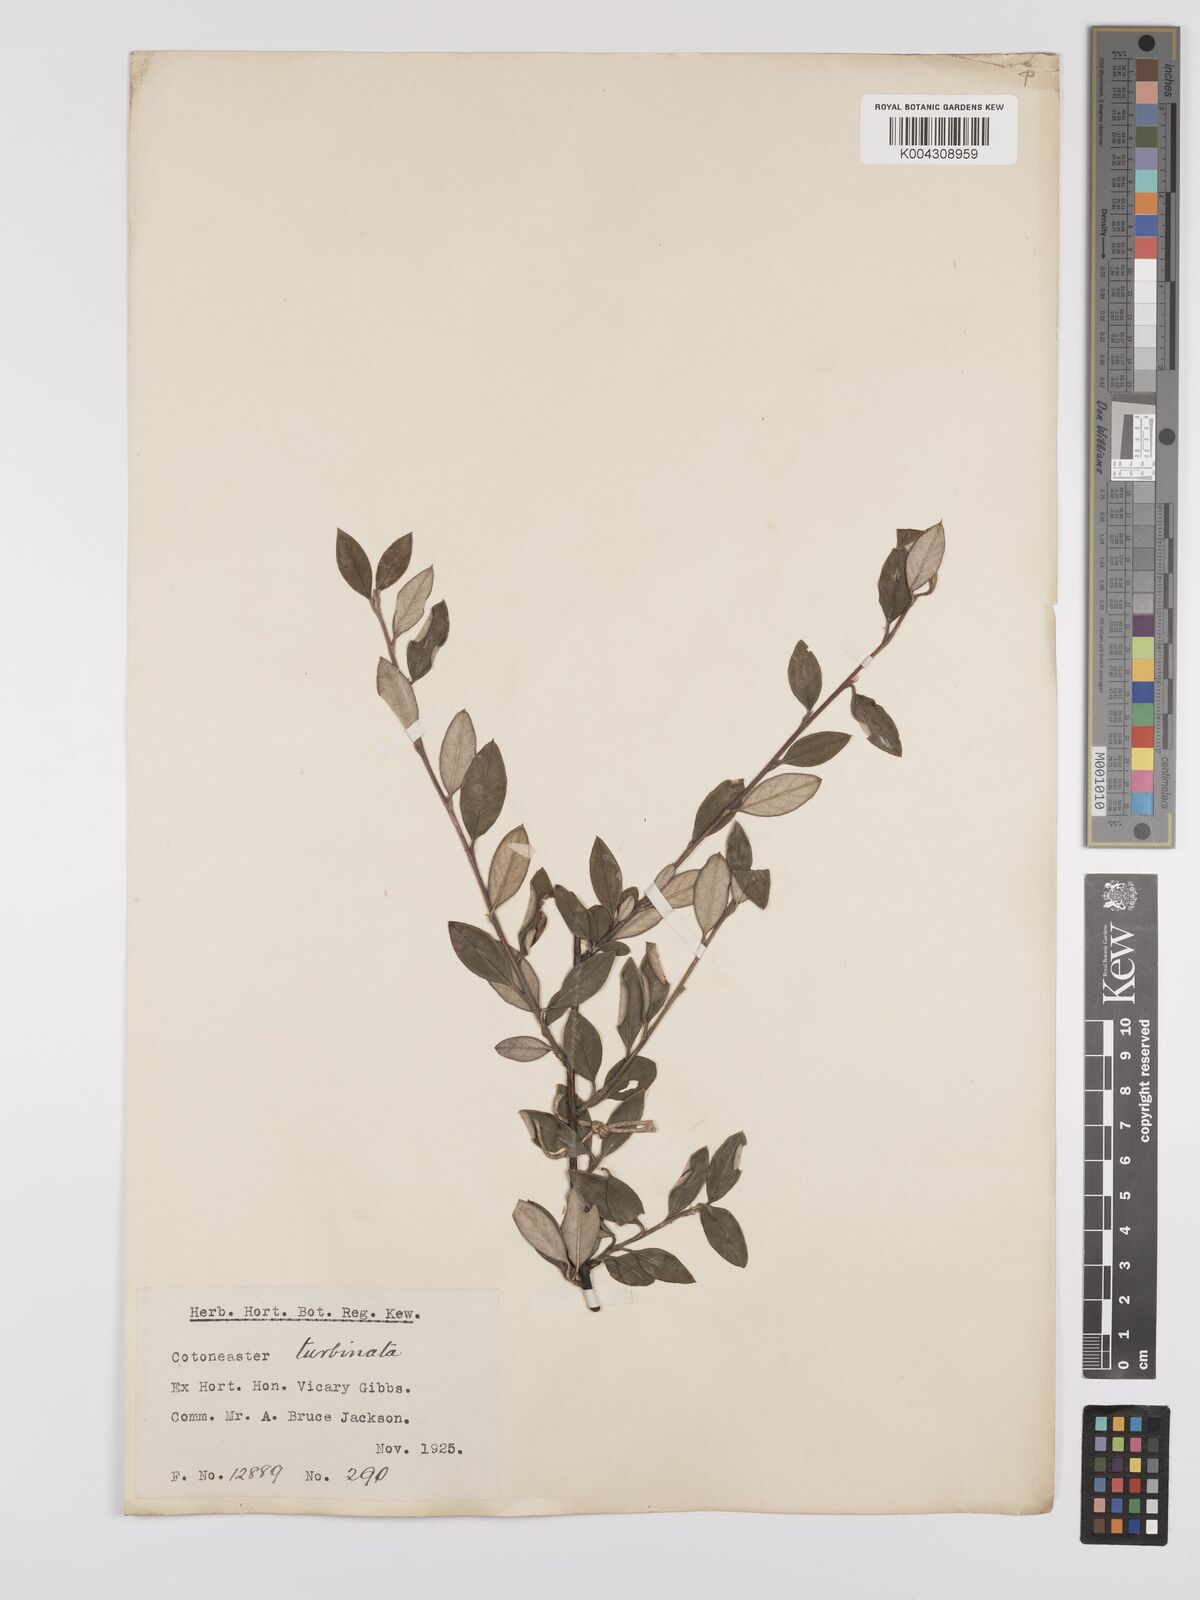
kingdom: Plantae
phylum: Tracheophyta
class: Magnoliopsida
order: Rosales
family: Rosaceae
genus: Cotoneaster
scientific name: Cotoneaster pannosus
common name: Silverleaf cotoneaster
